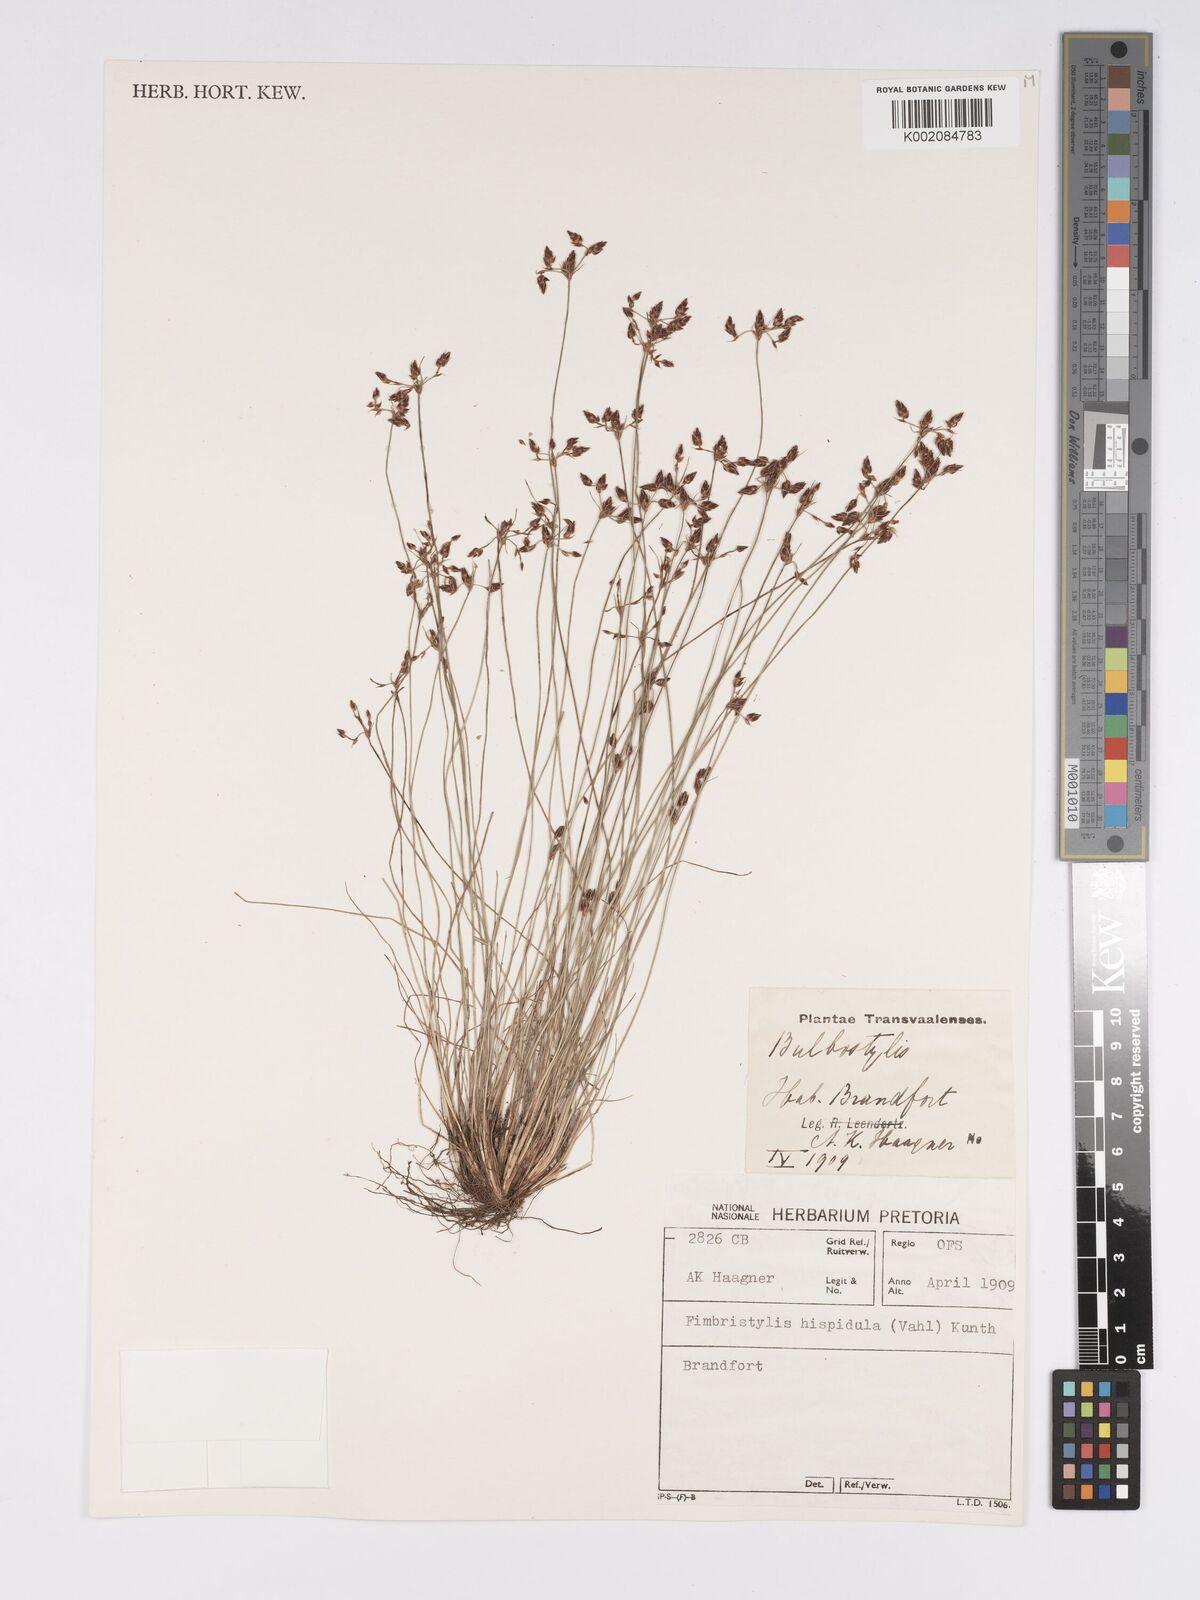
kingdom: Plantae
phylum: Tracheophyta
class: Liliopsida
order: Poales
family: Cyperaceae
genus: Bulbostylis
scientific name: Bulbostylis
